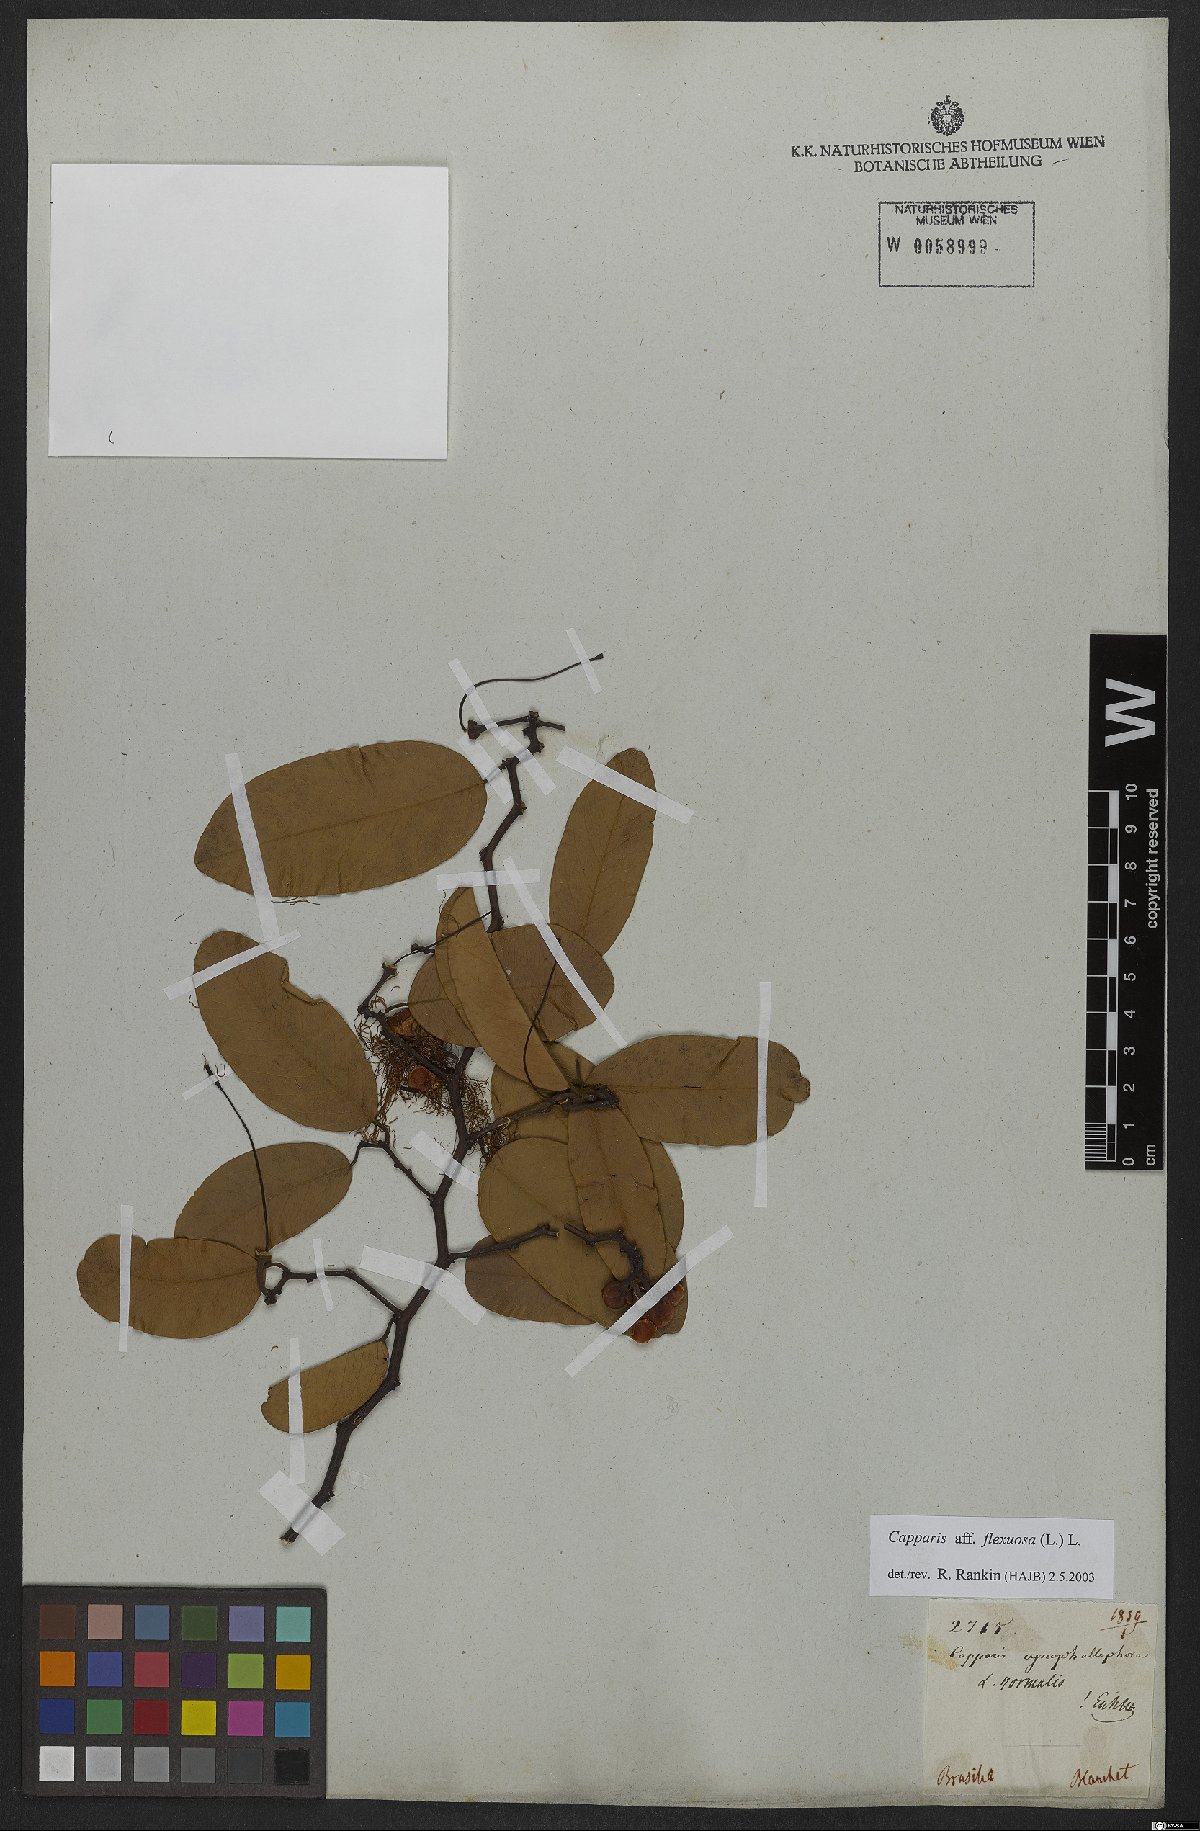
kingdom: Plantae
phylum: Tracheophyta
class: Magnoliopsida
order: Brassicales
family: Capparaceae
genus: Cynophalla
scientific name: Cynophalla flexuosa
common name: Capertree
